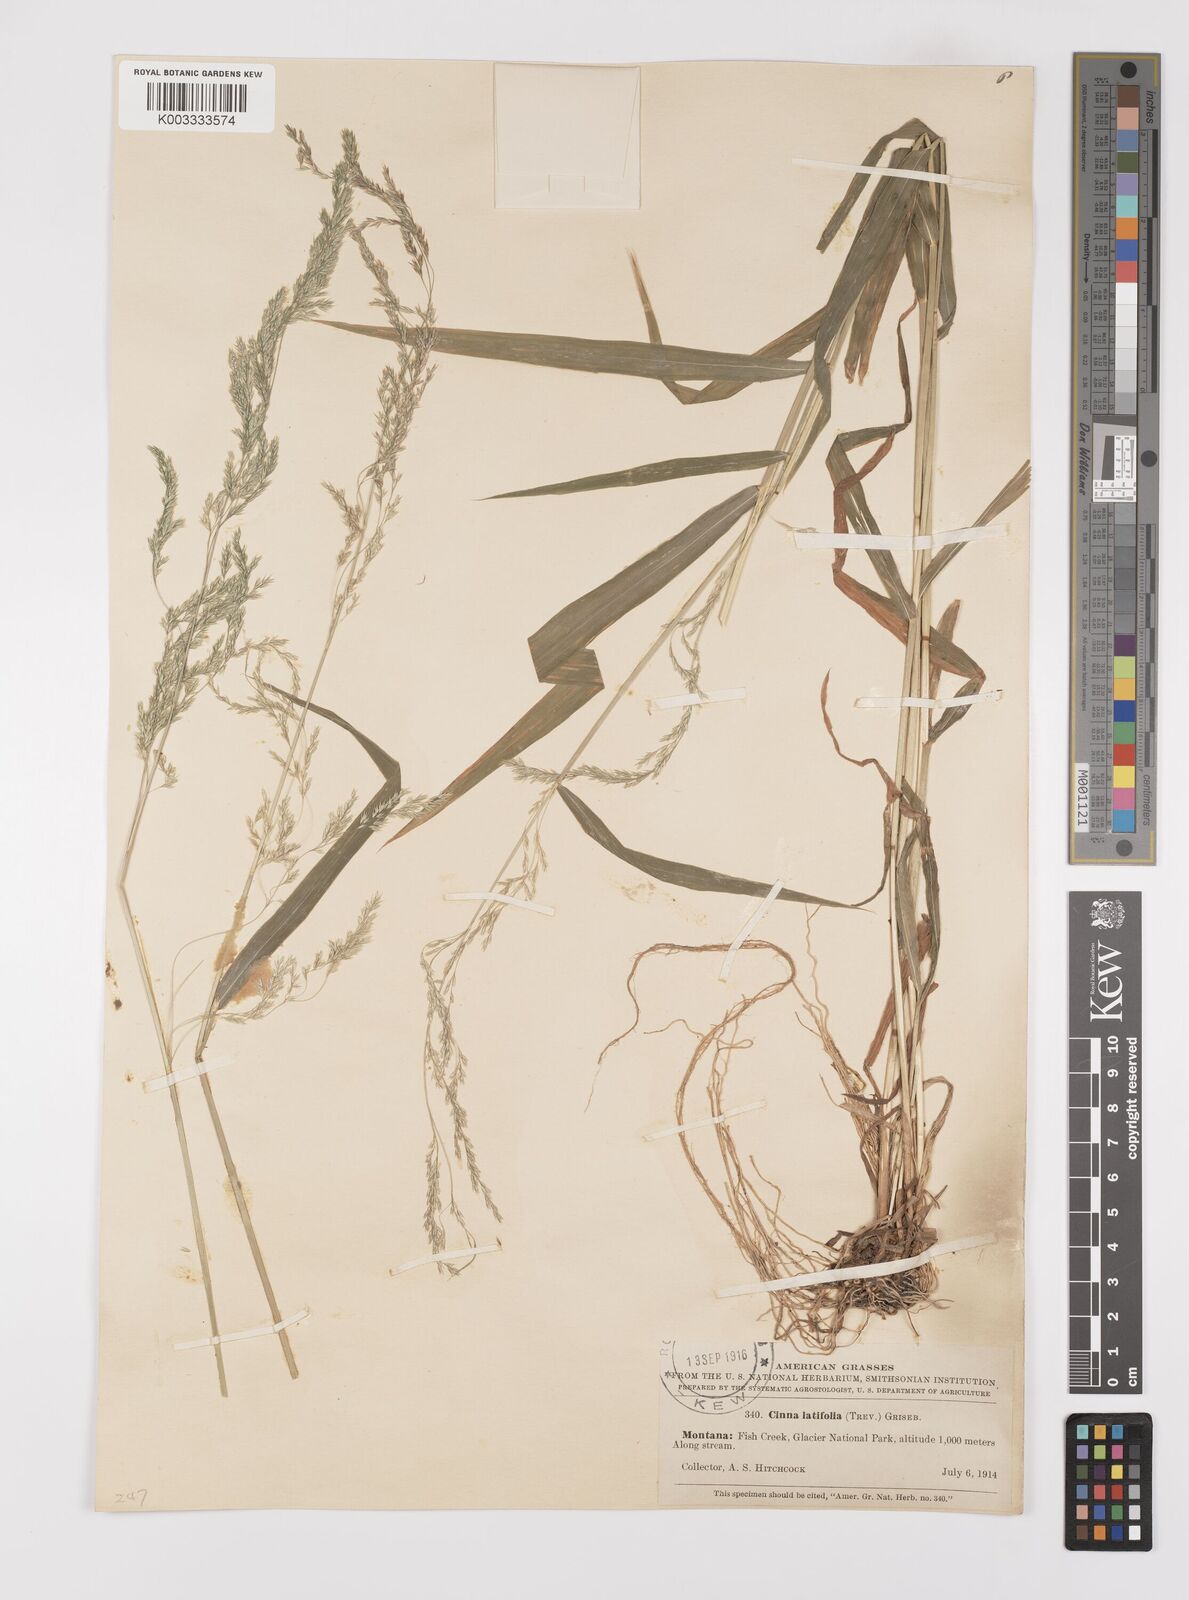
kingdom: Plantae
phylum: Tracheophyta
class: Liliopsida
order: Poales
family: Poaceae
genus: Cinna
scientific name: Cinna latifolia
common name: Drooping woodreed
